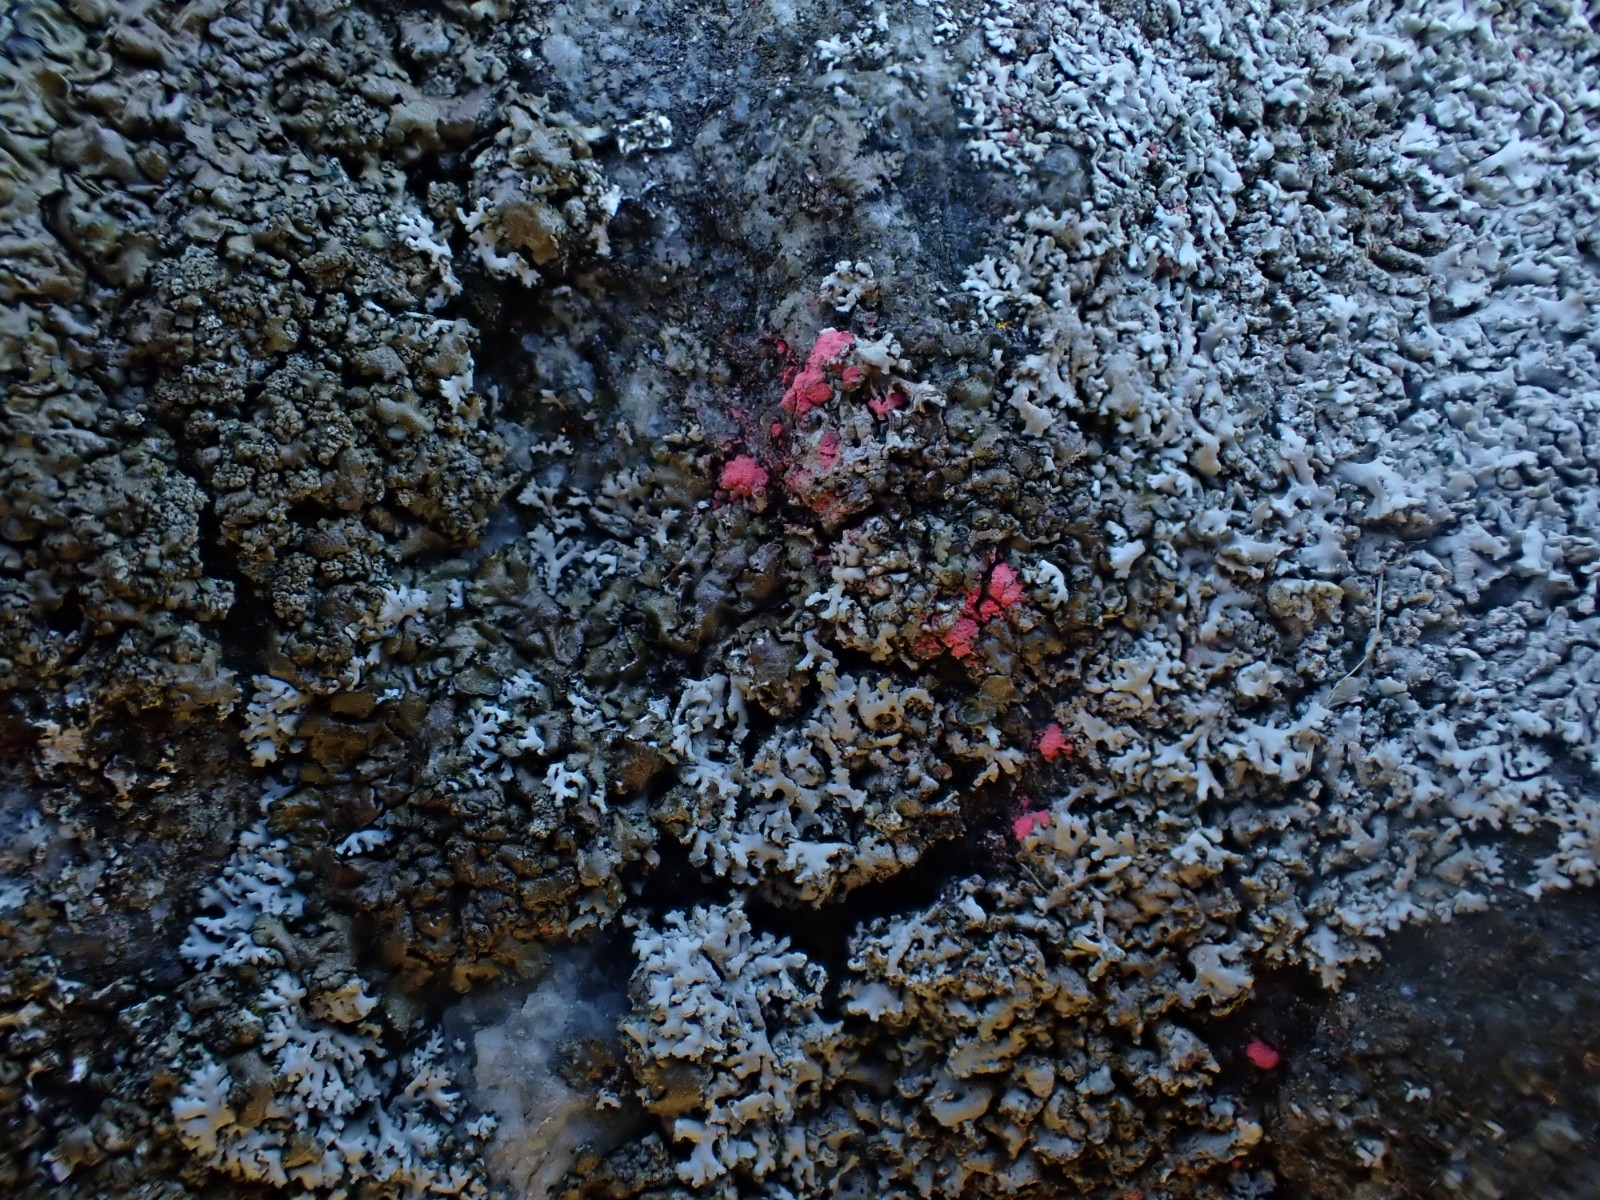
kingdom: Fungi
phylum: Ascomycota
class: Sordariomycetes
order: Hypocreales
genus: Illosporiopsis
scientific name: Illosporiopsis christiansenii
